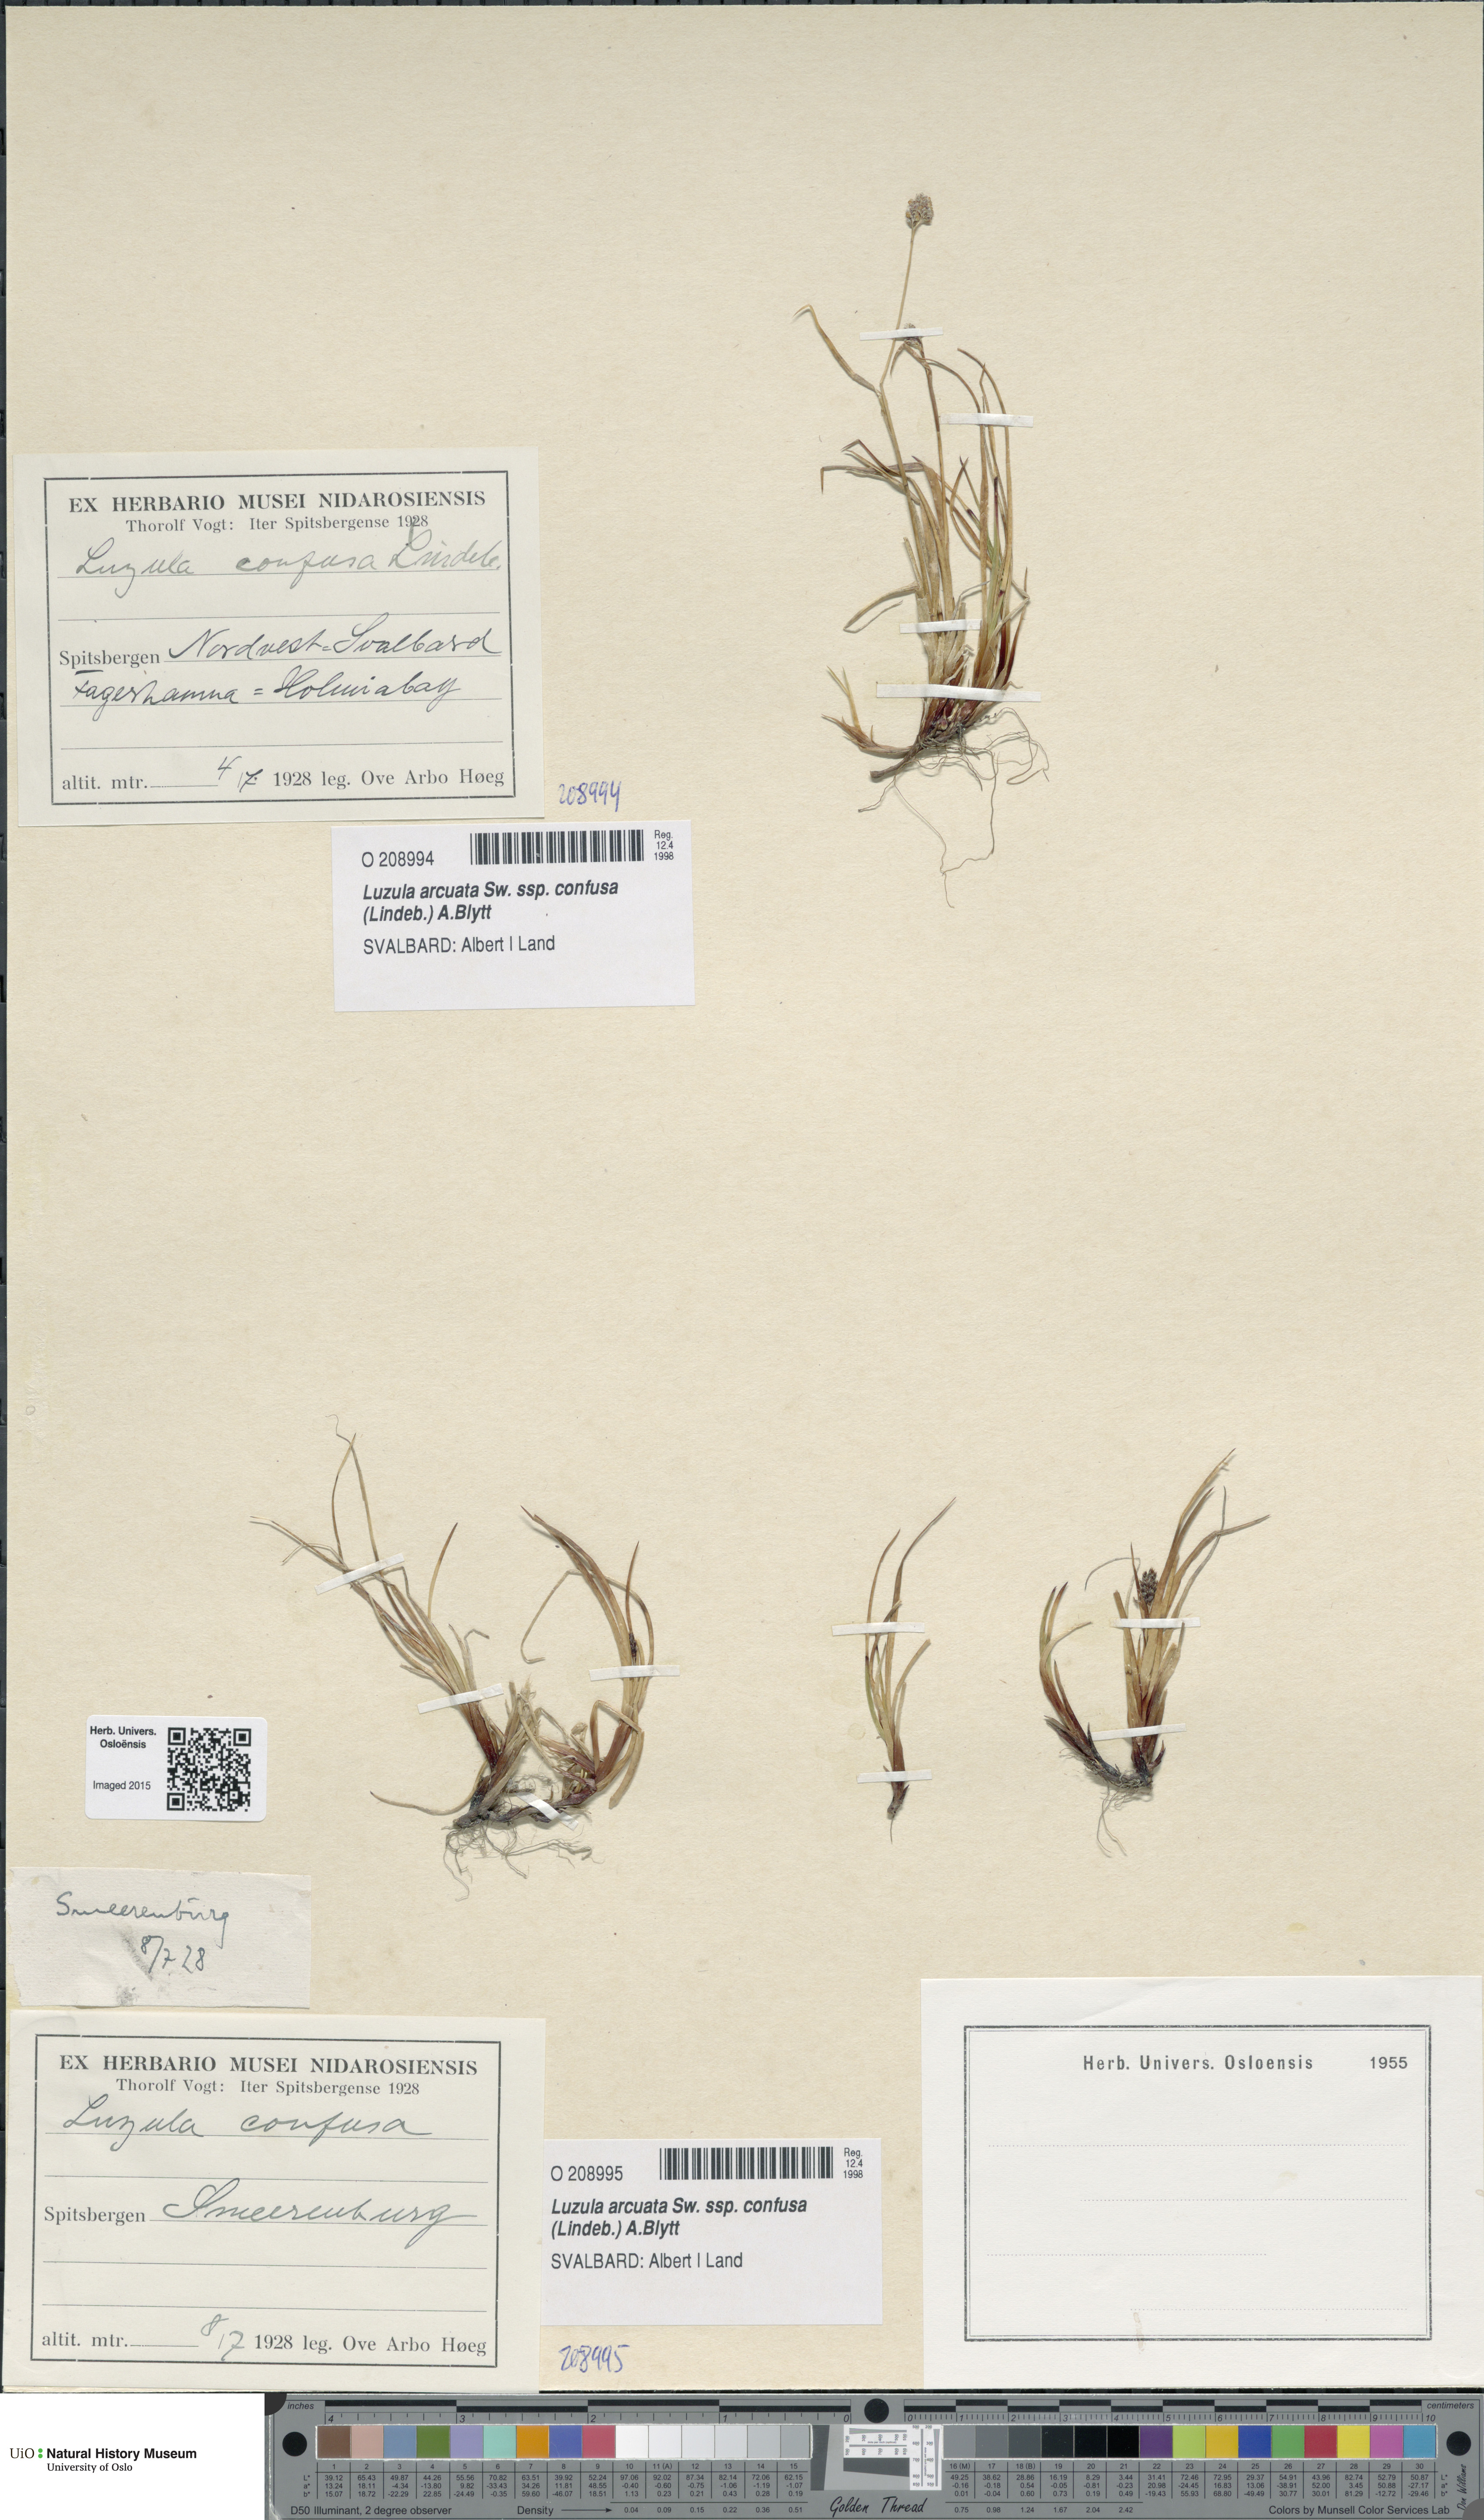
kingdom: Plantae
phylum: Tracheophyta
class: Liliopsida
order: Poales
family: Juncaceae
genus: Luzula
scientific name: Luzula confusa
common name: Northern wood rush
